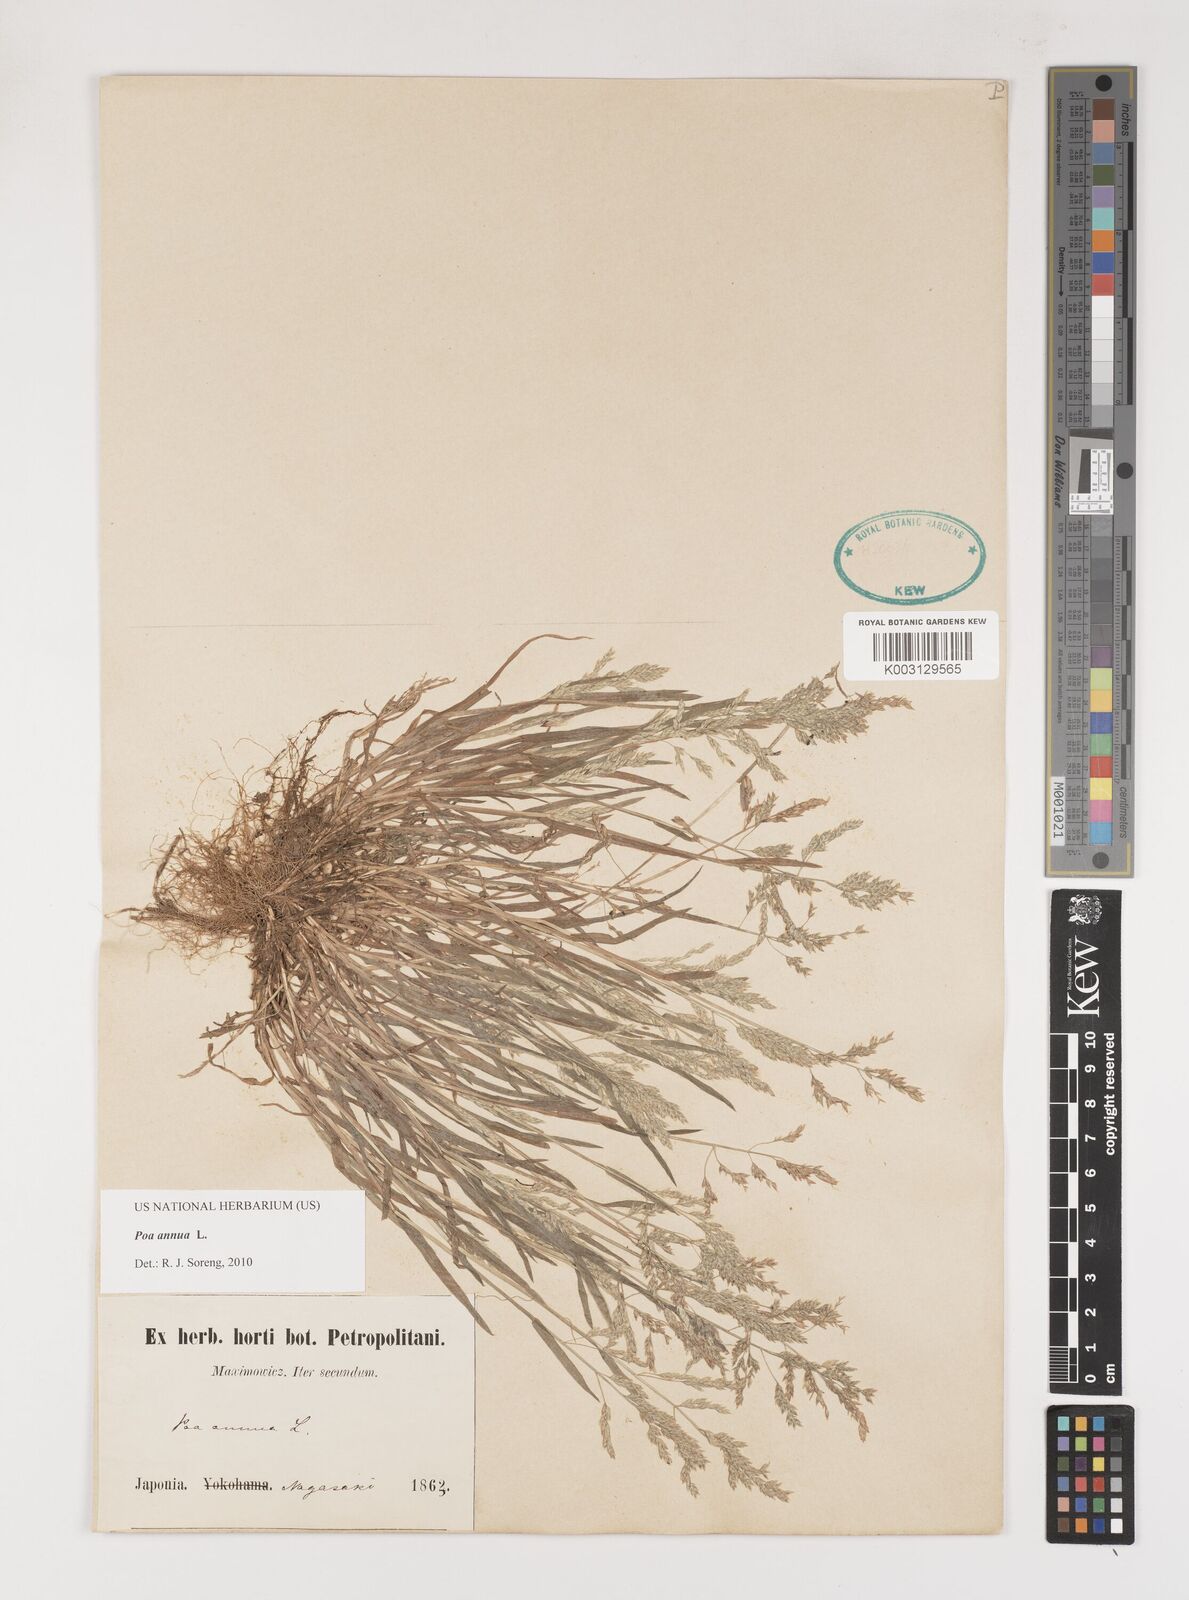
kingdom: Plantae
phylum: Tracheophyta
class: Liliopsida
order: Poales
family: Poaceae
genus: Poa
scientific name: Poa annua
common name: Annual bluegrass
